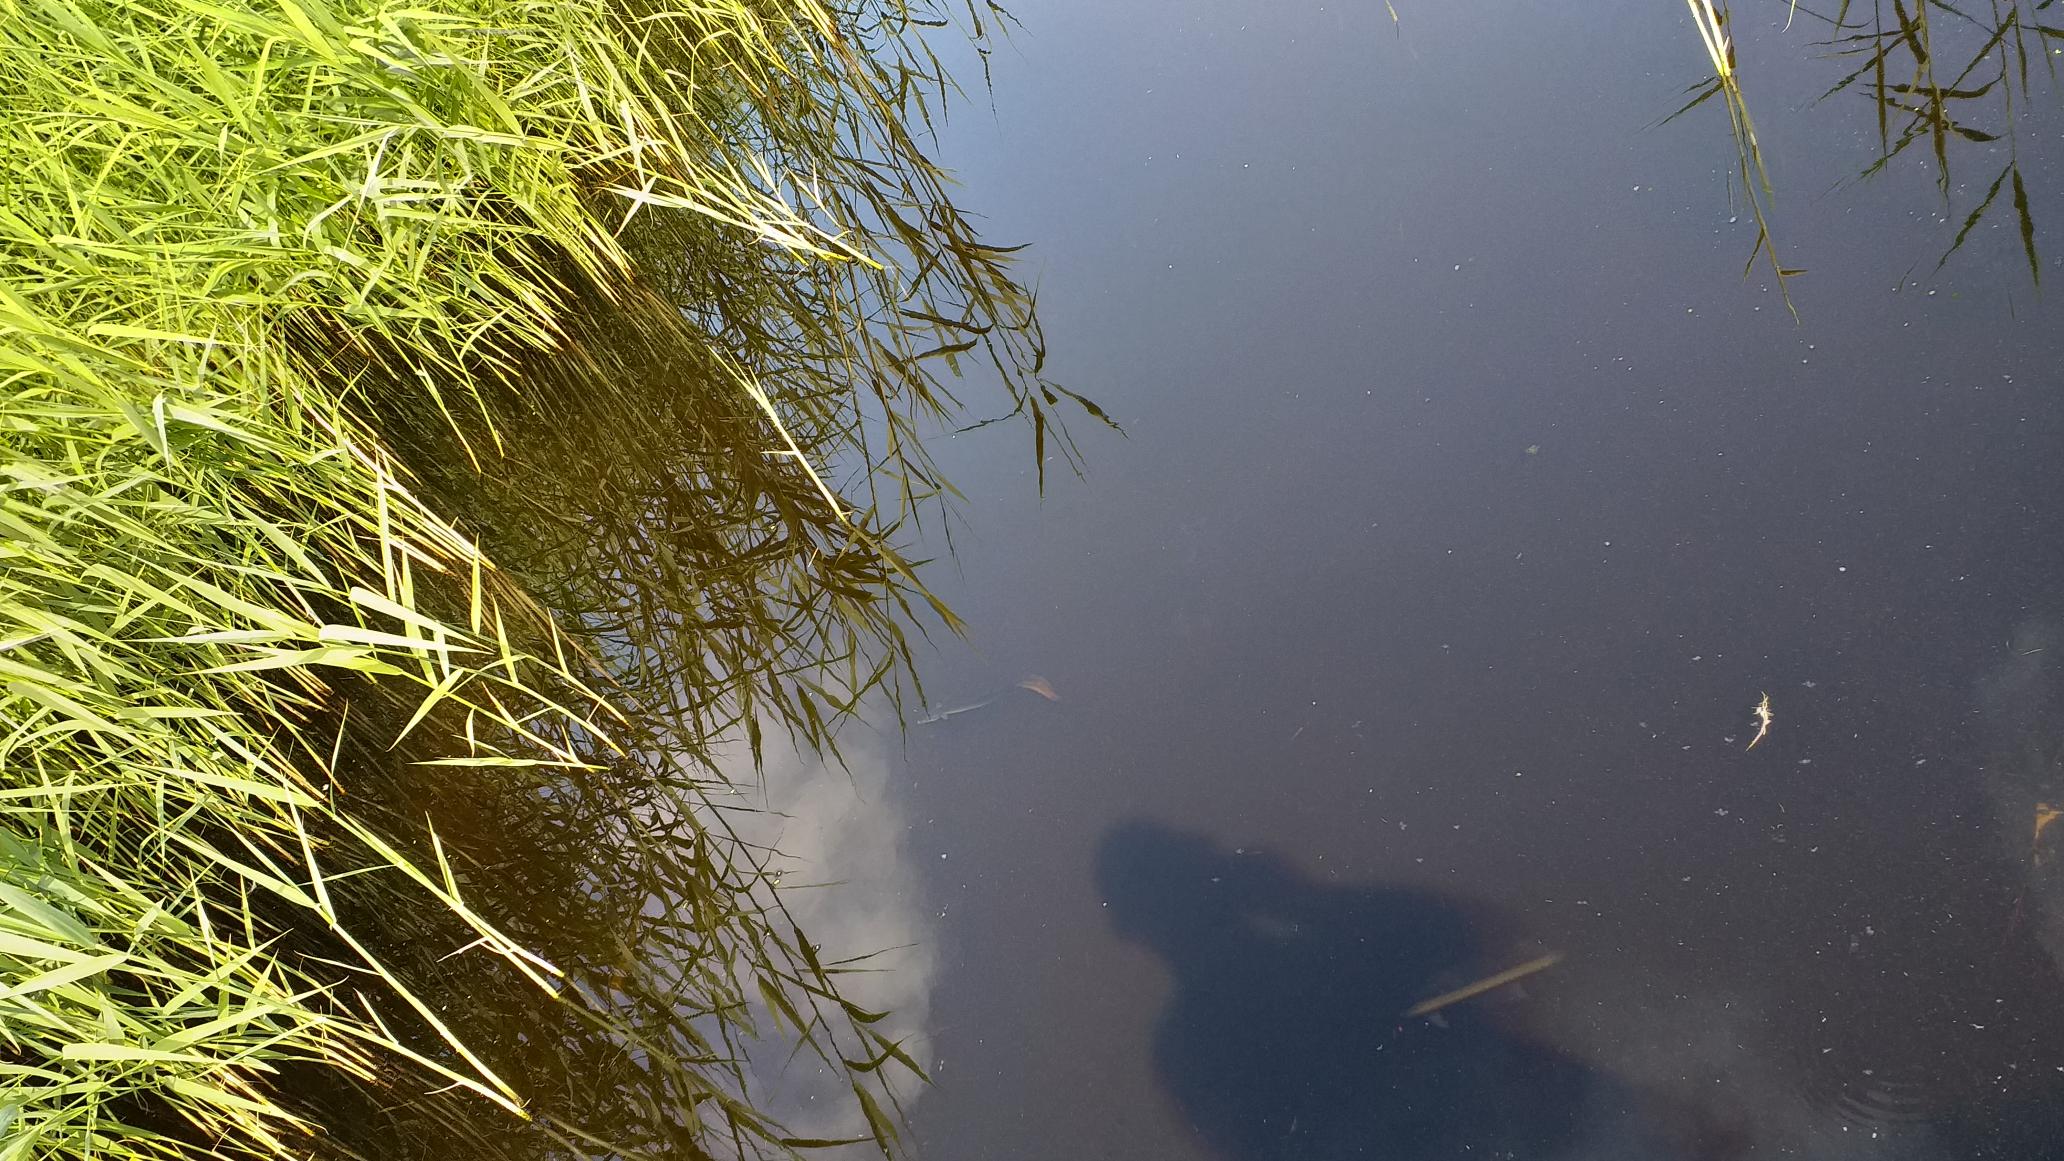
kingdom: Animalia
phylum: Chordata
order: Anguilliformes
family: Anguillidae
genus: Anguilla
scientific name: Anguilla anguilla
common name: Europæisk ål
